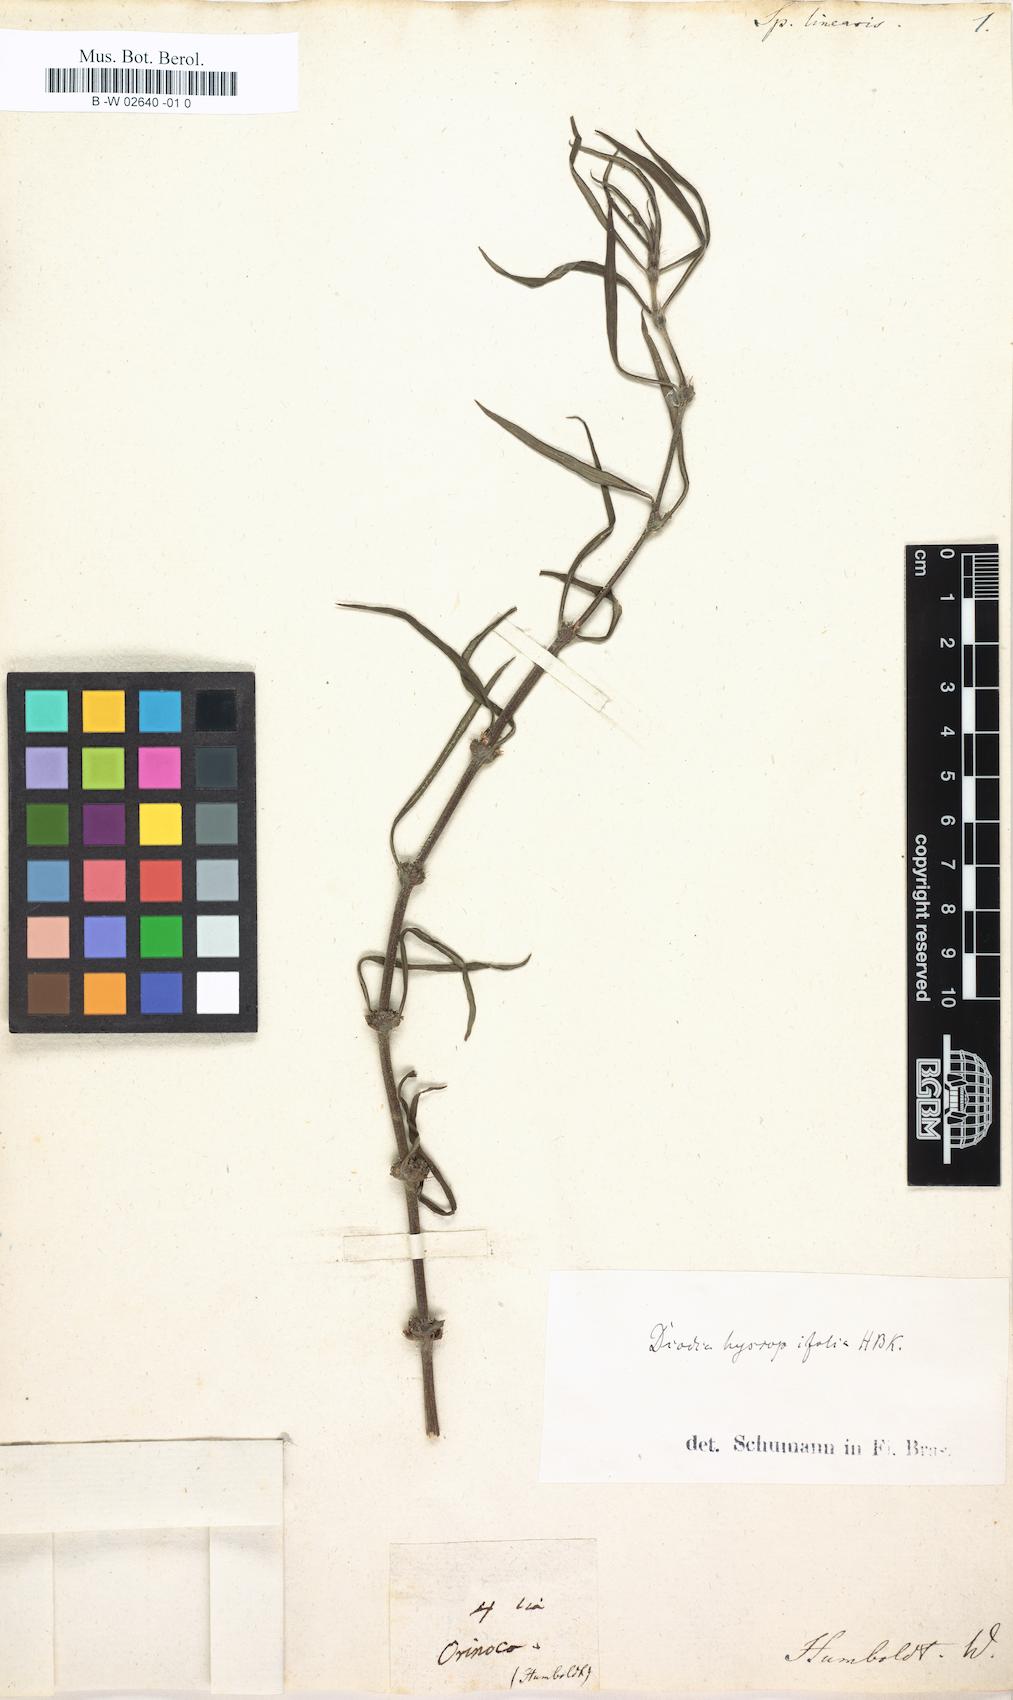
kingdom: Plantae
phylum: Tracheophyta
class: Magnoliopsida
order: Gentianales
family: Rubiaceae
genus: Spermacoce
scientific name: Spermacoce hyssopifolia
